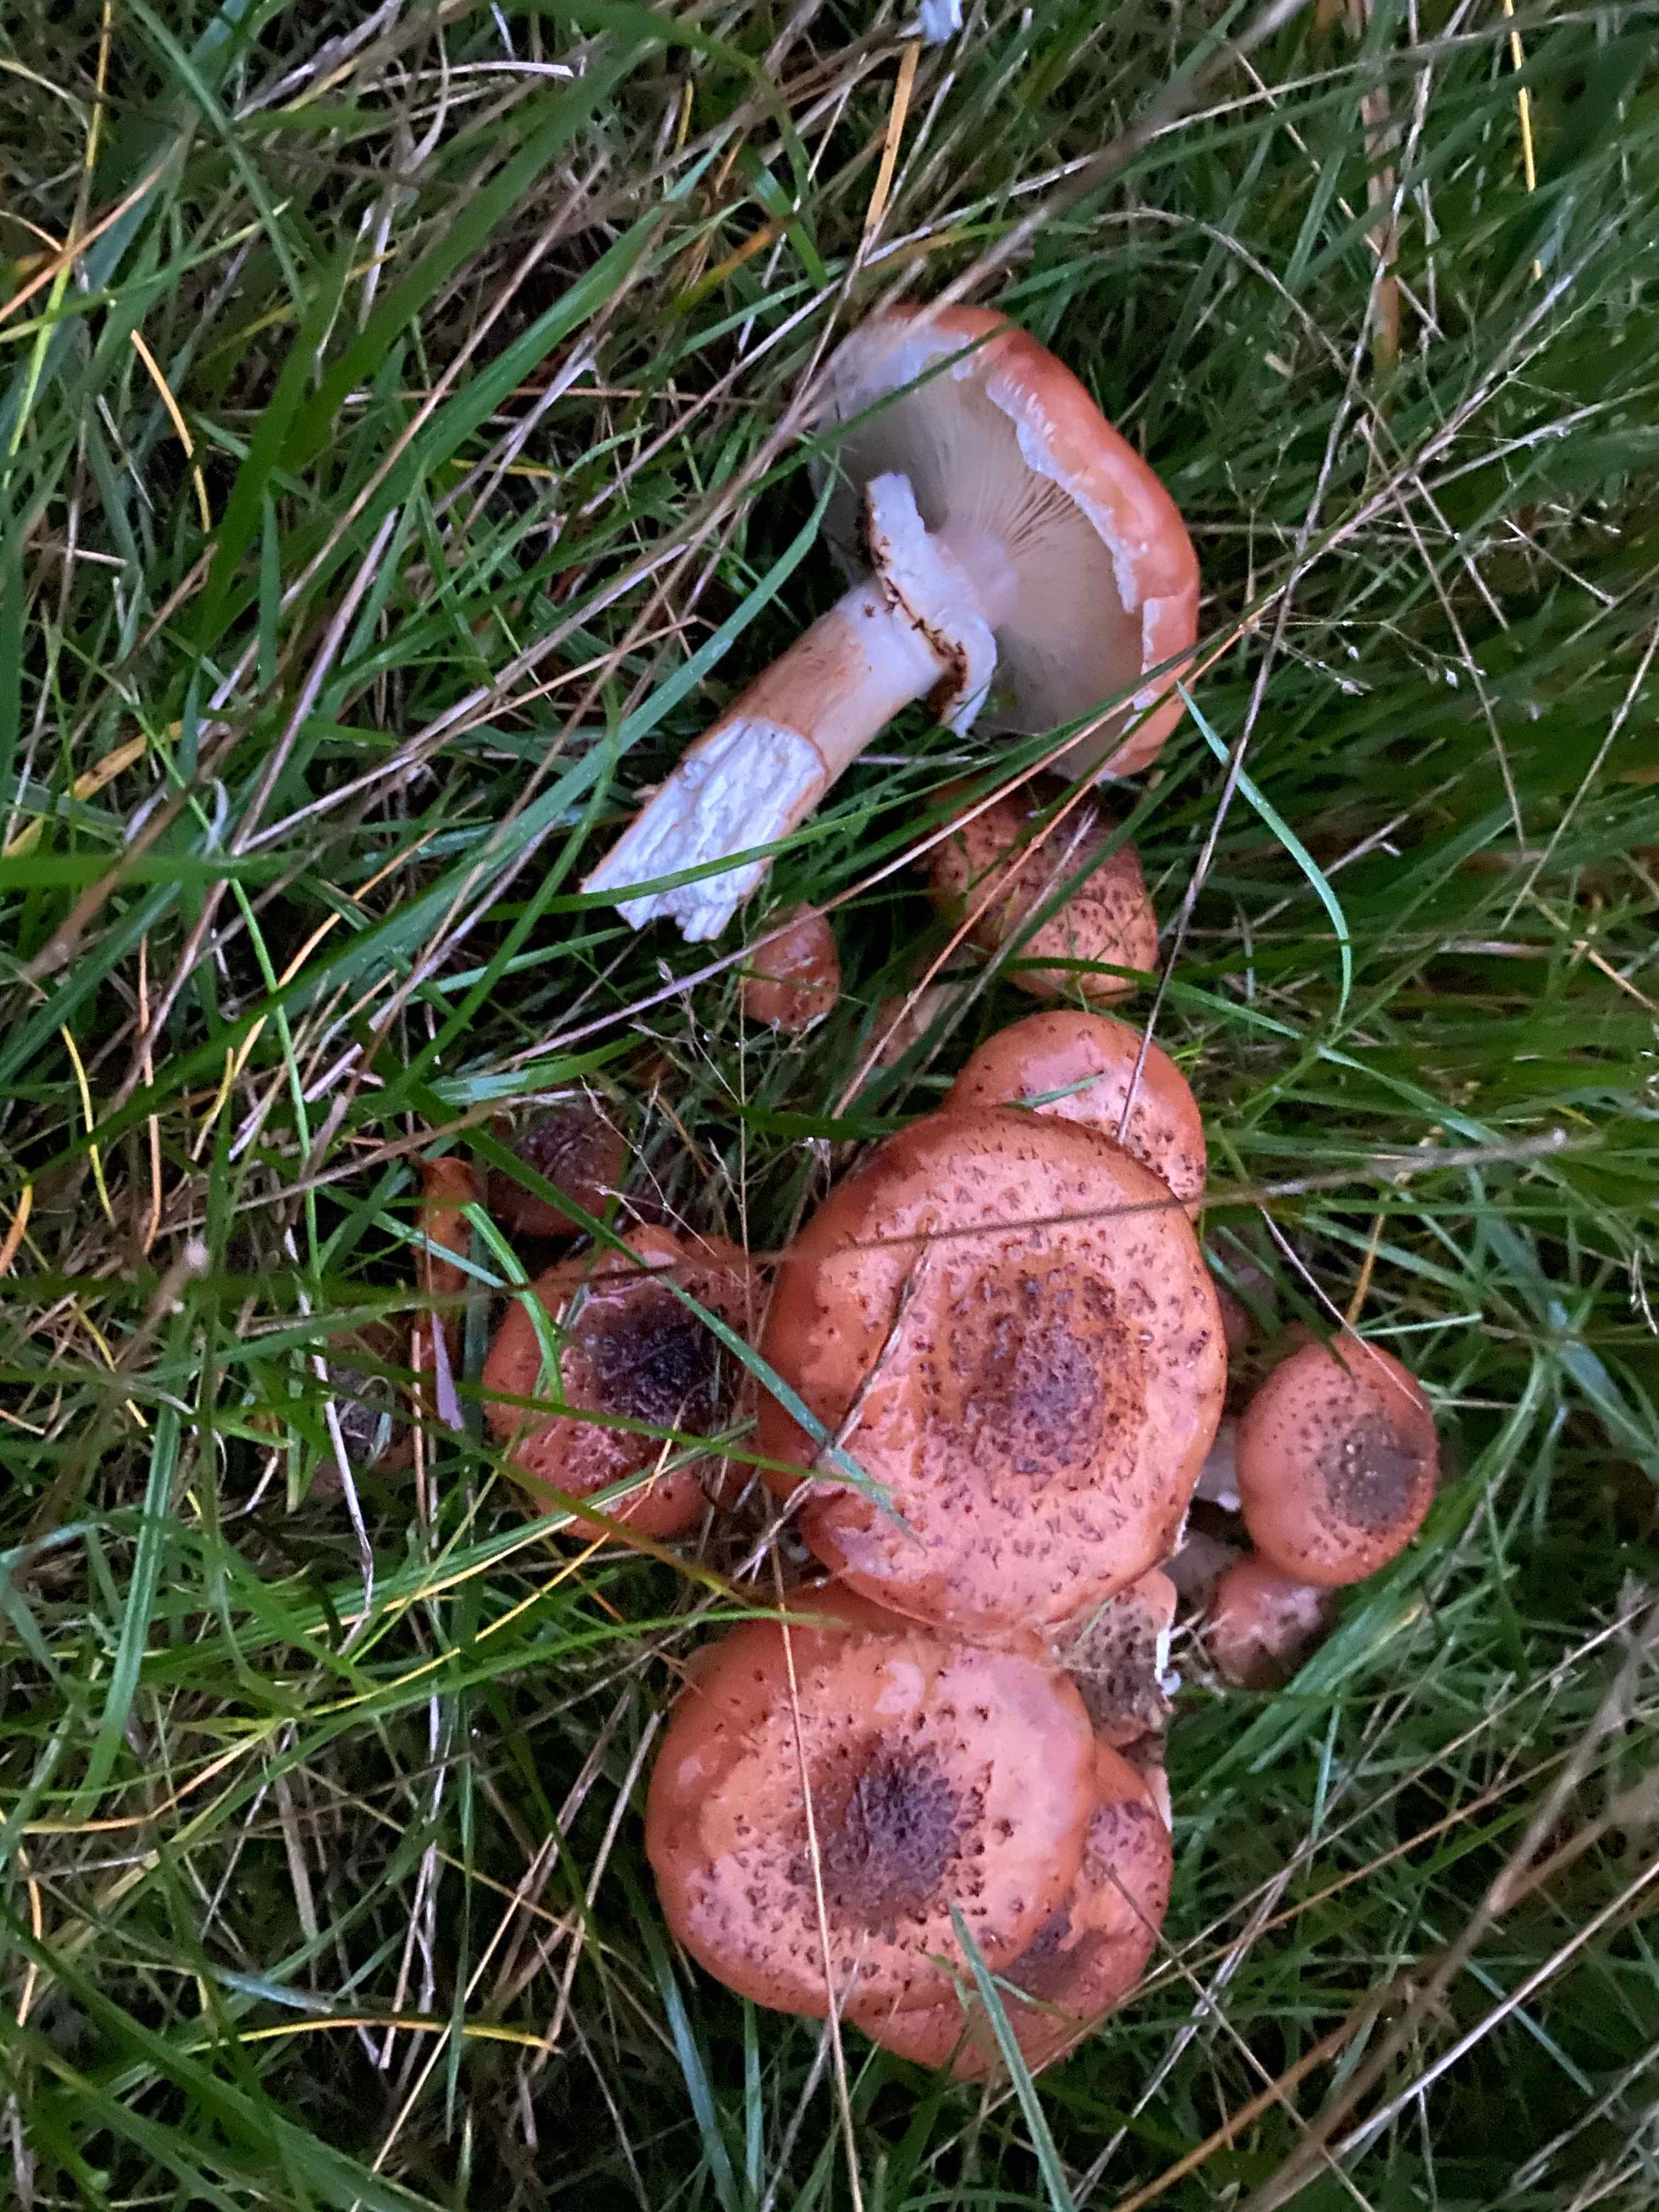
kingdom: Fungi
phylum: Basidiomycota
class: Agaricomycetes
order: Agaricales
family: Physalacriaceae
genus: Armillaria
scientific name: Armillaria ostoyae
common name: mørk honningsvamp
